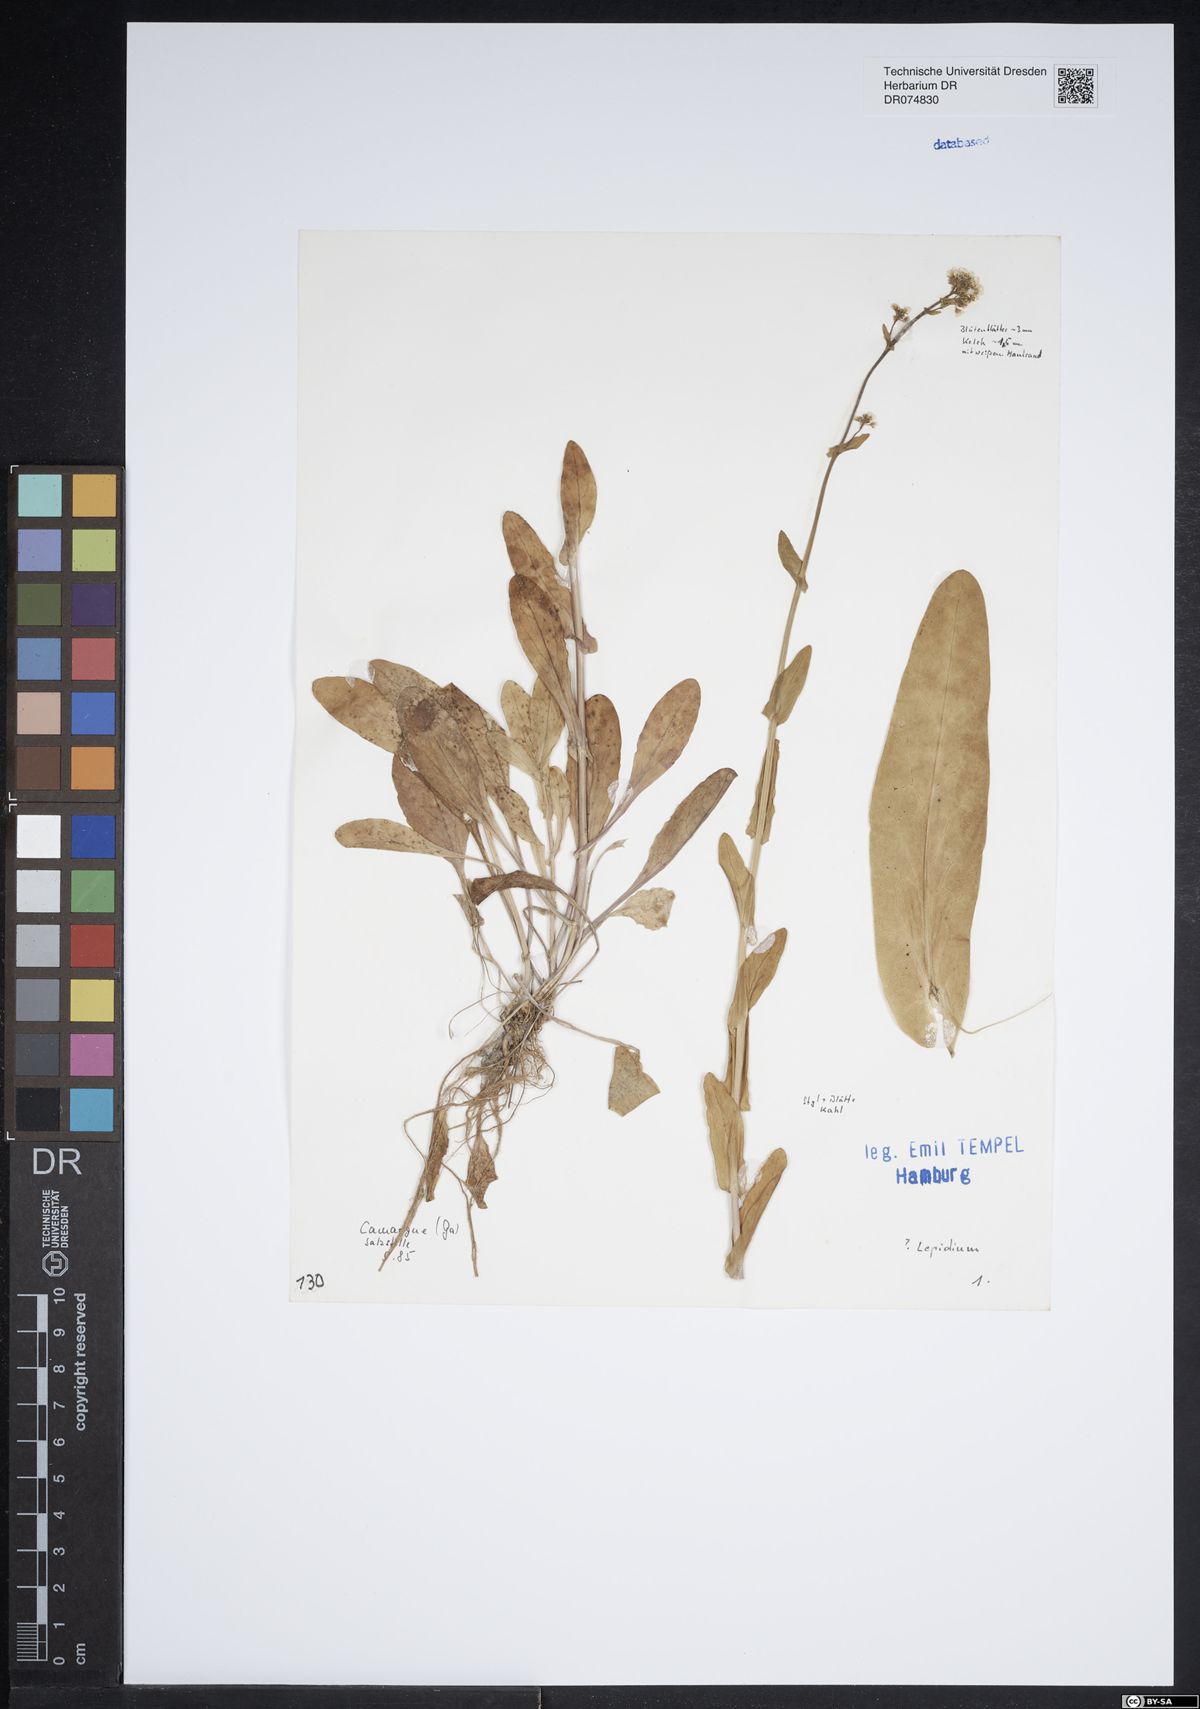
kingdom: Plantae
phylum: Tracheophyta
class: Magnoliopsida
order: Brassicales
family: Brassicaceae
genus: Lepidium
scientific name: Lepidium
